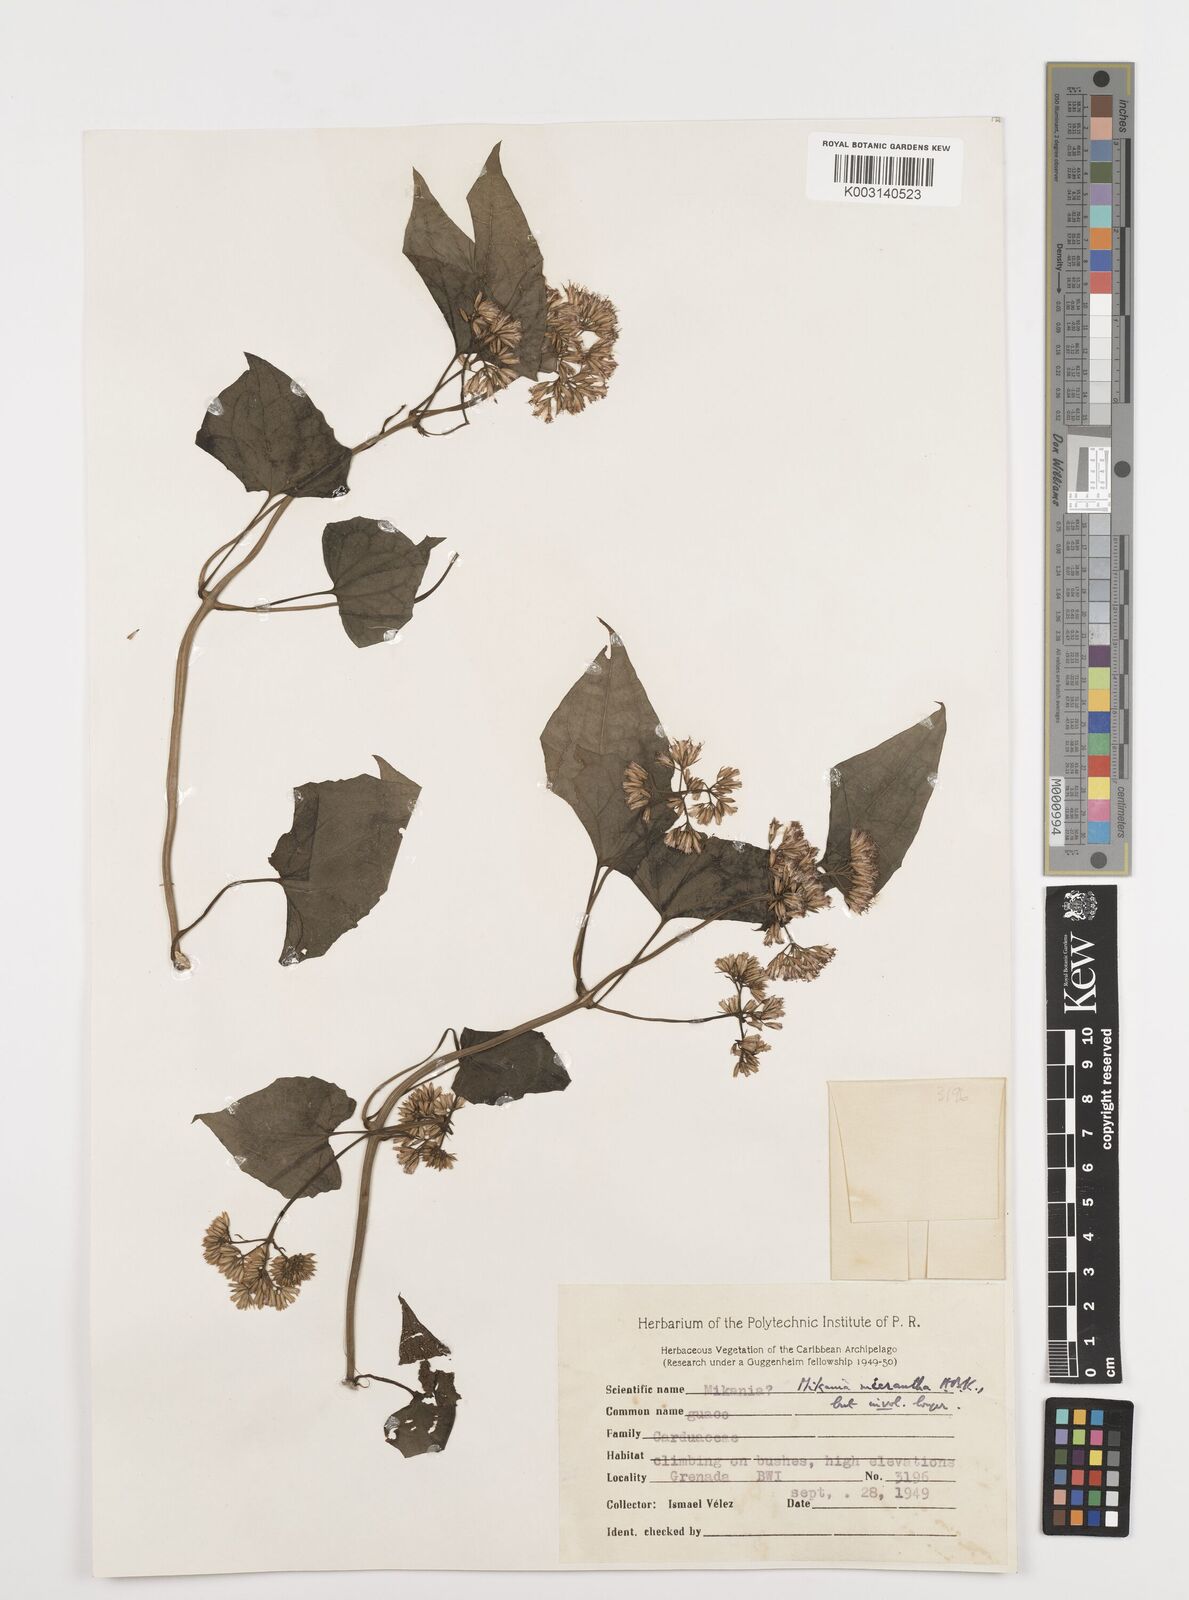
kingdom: Plantae
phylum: Tracheophyta
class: Magnoliopsida
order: Asterales
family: Asteraceae
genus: Mikania
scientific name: Mikania micrantha
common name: Mile-a-minute
